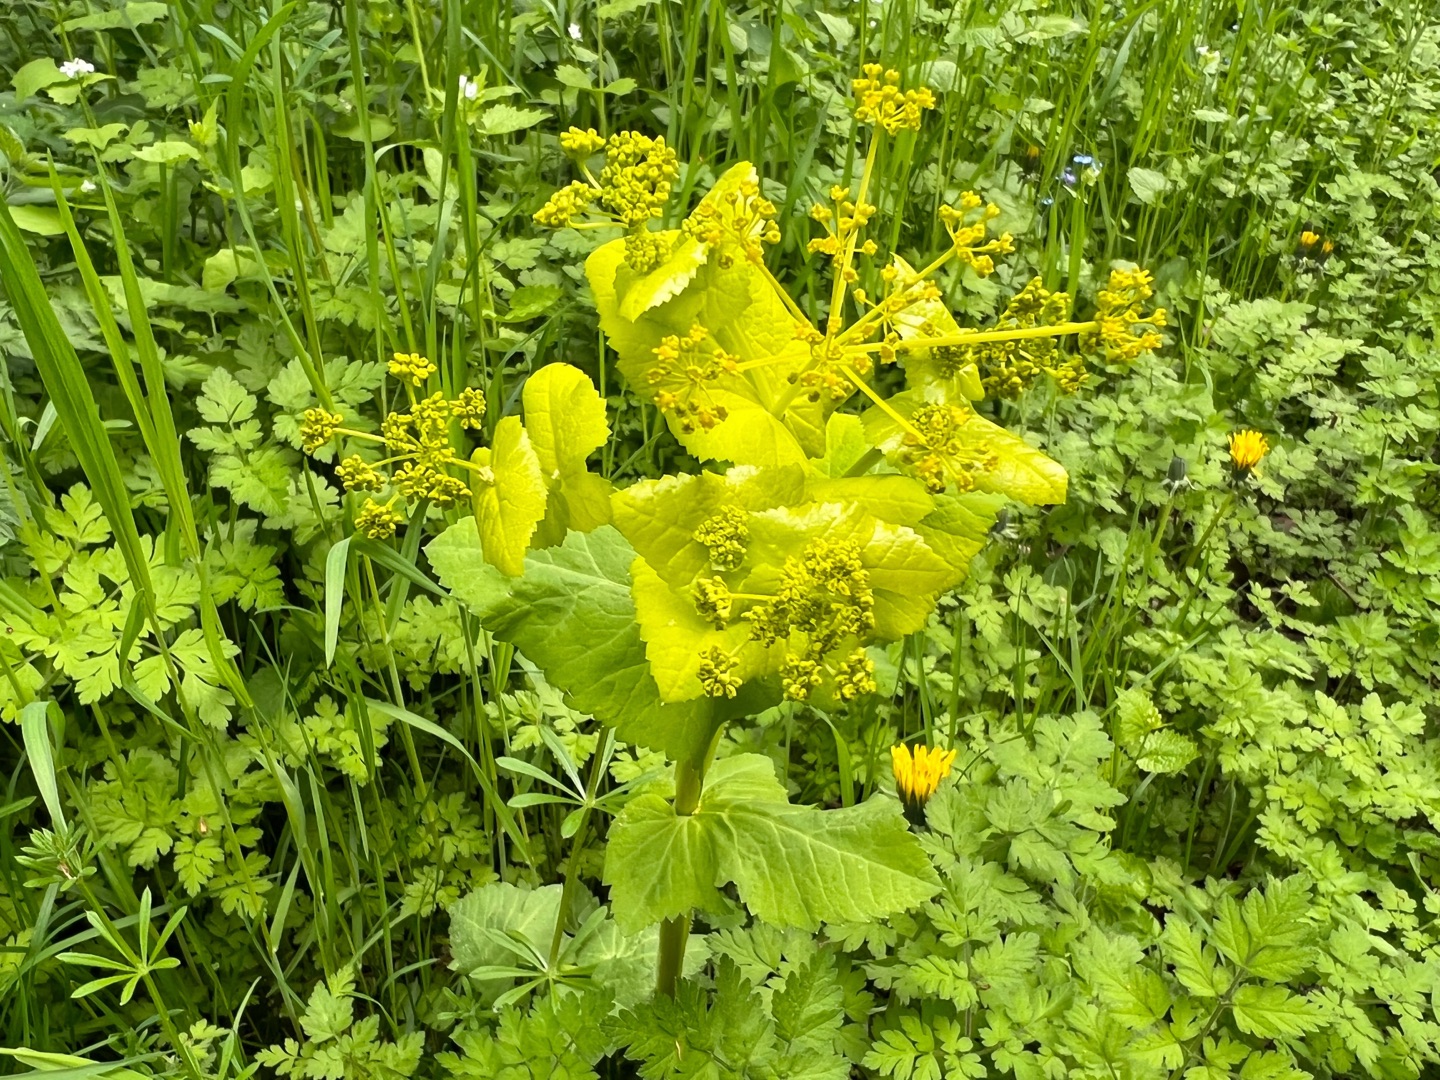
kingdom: Plantae
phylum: Tracheophyta
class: Magnoliopsida
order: Apiales
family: Apiaceae
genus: Smyrnium
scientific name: Smyrnium
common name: Lundgyldenslægten
